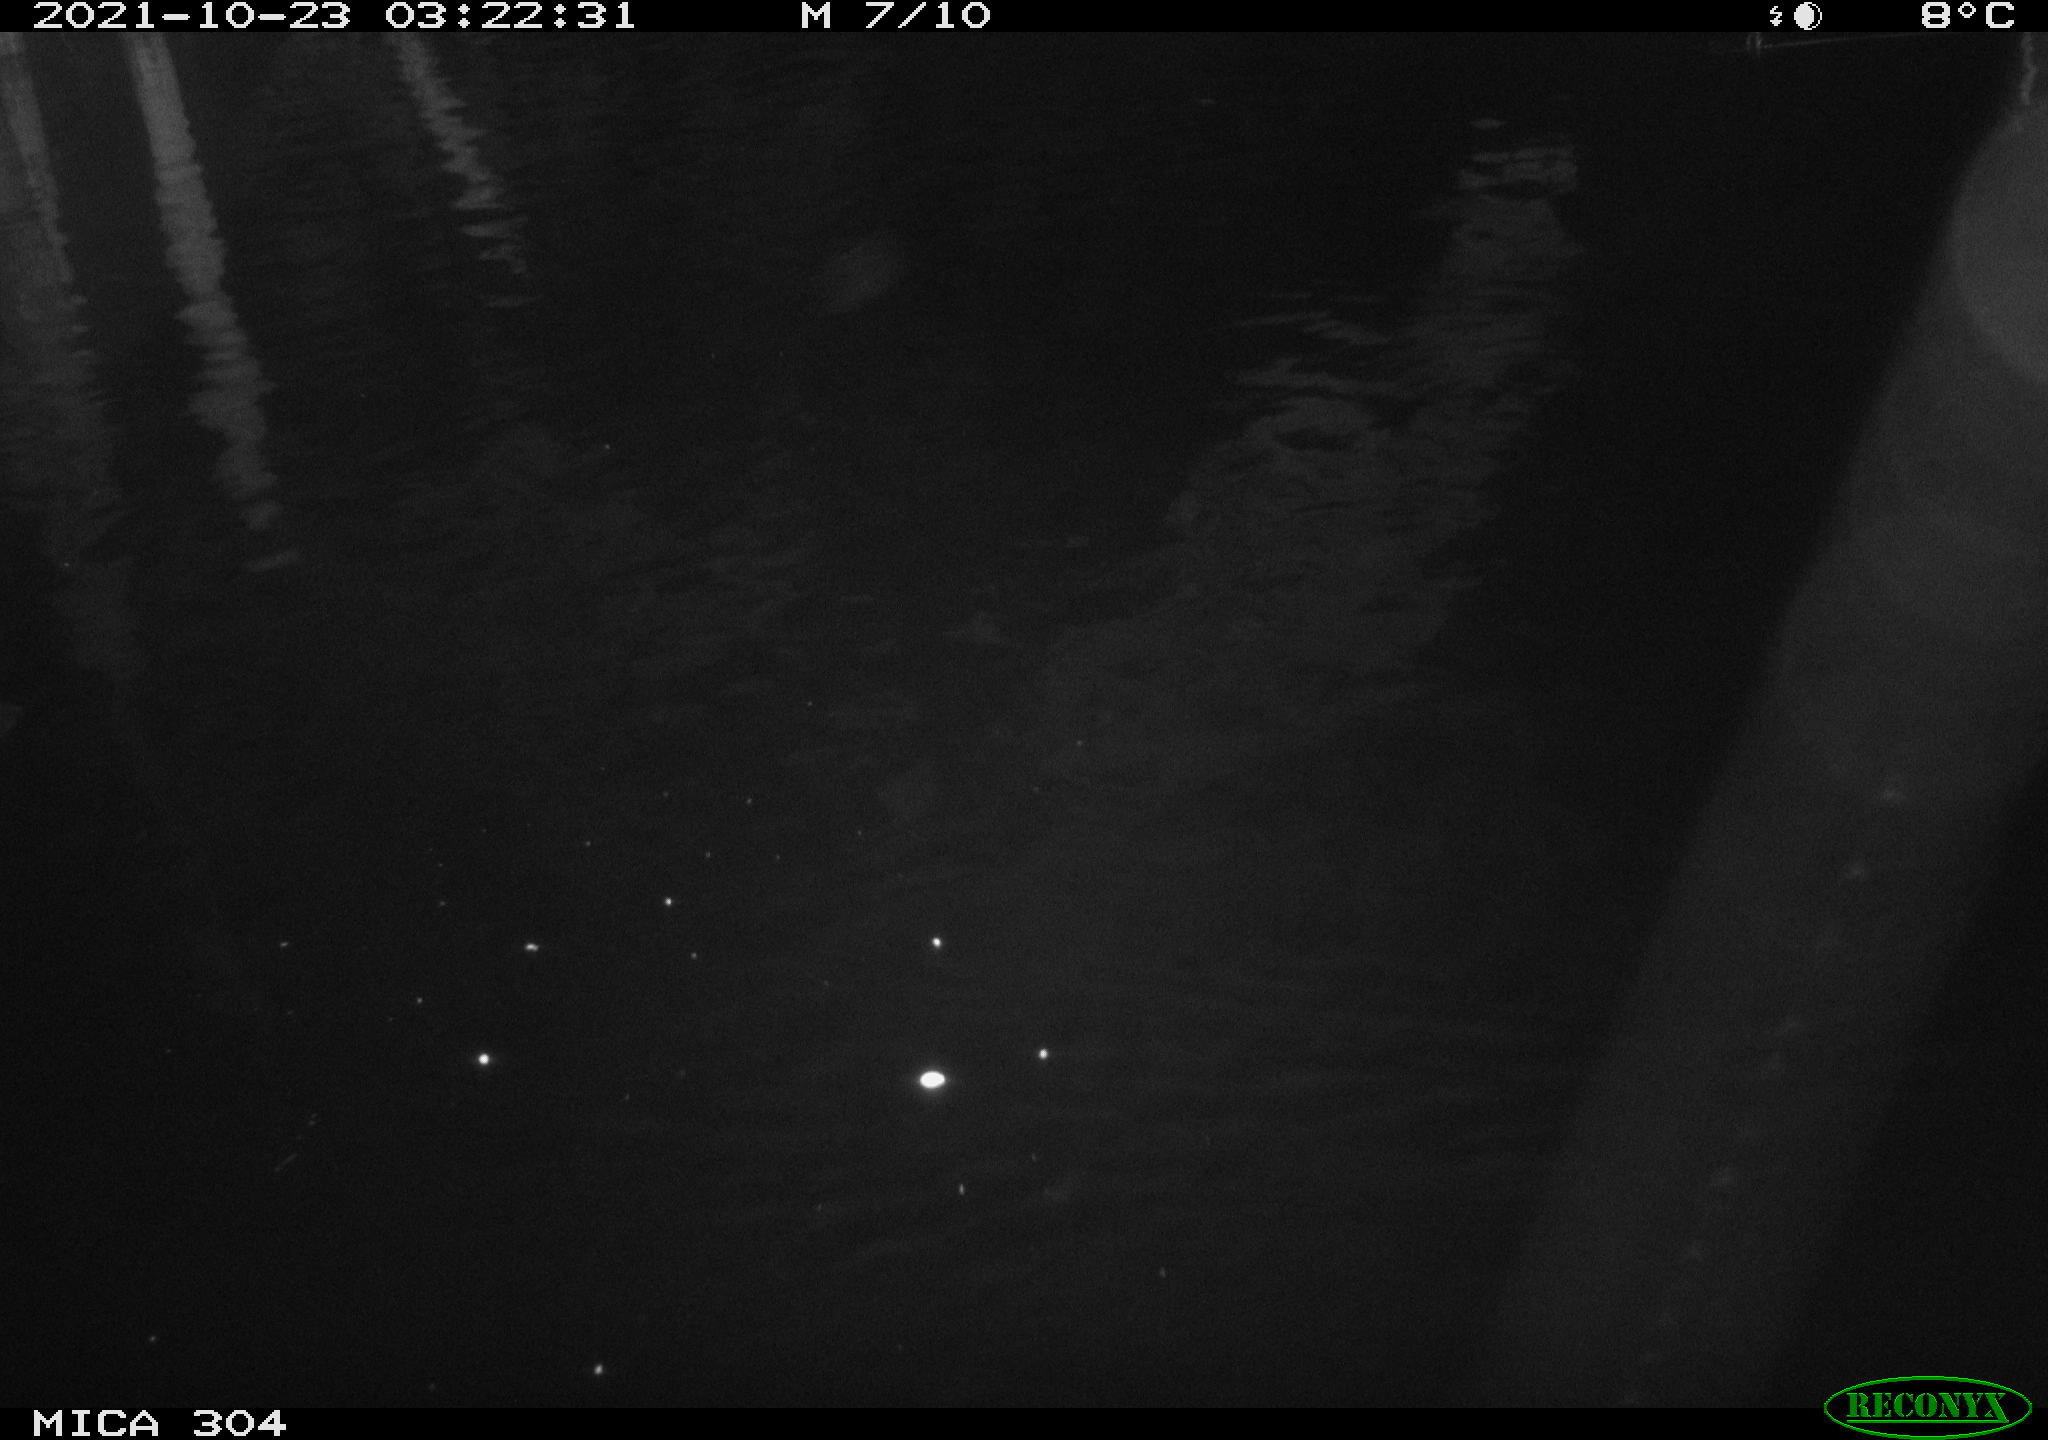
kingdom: Animalia
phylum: Chordata
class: Mammalia
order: Rodentia
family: Muridae
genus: Rattus
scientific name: Rattus norvegicus
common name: Brown rat
